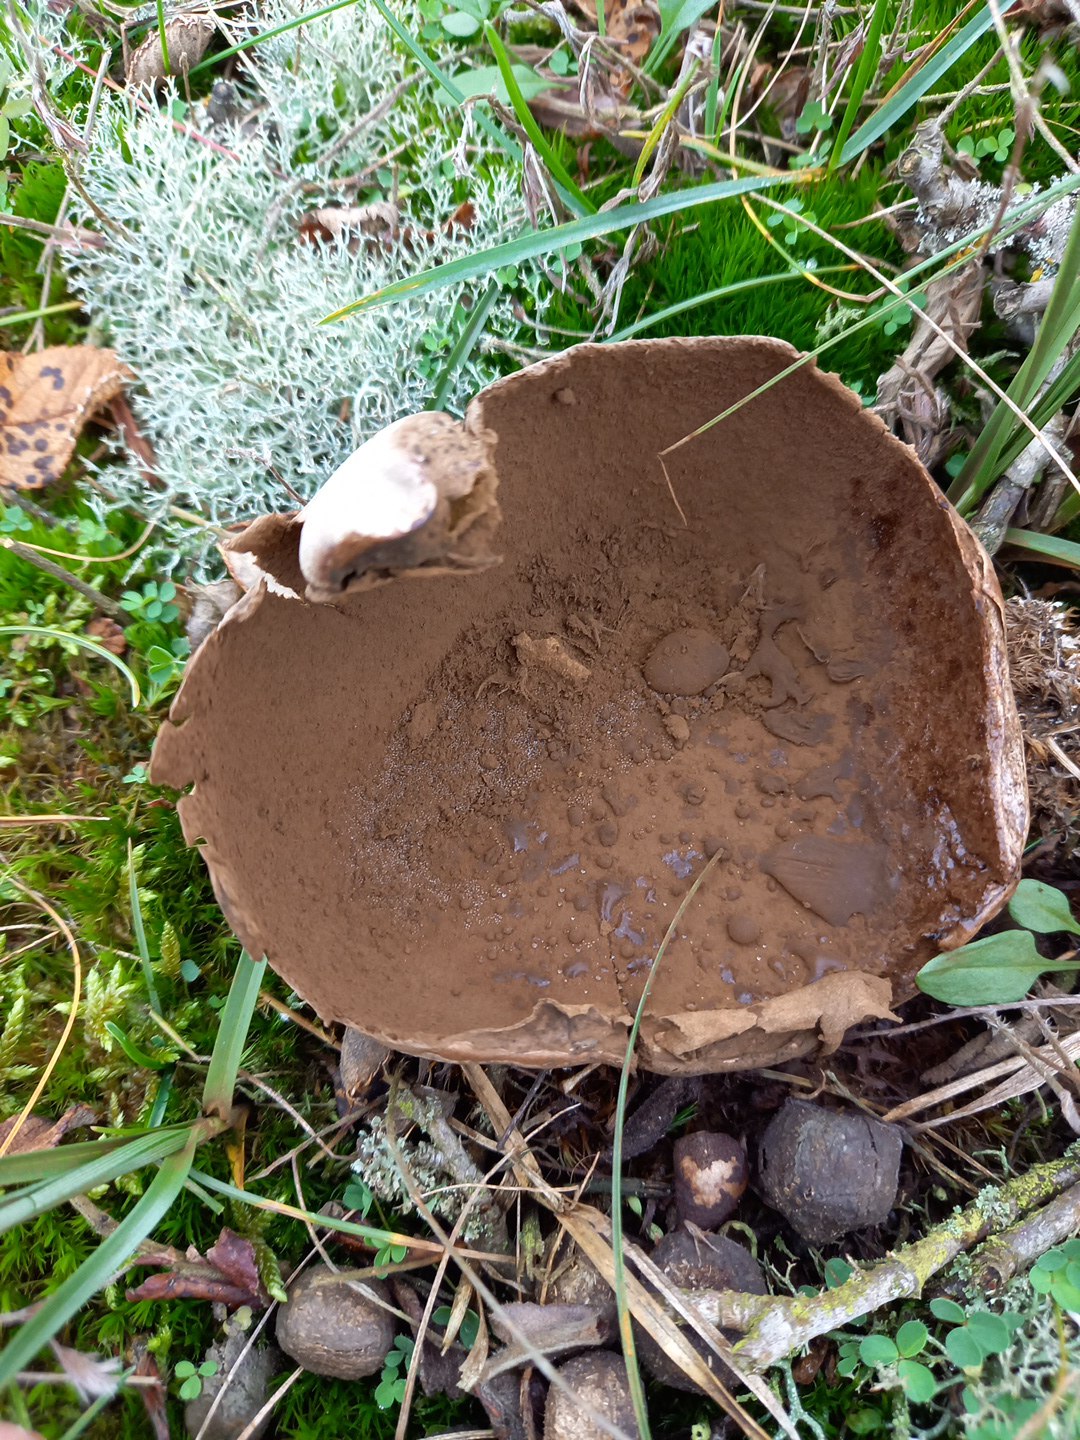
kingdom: Fungi
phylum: Basidiomycota
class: Agaricomycetes
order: Agaricales
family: Lycoperdaceae
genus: Bovistella
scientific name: Bovistella utriformis
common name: skællet støvbold
